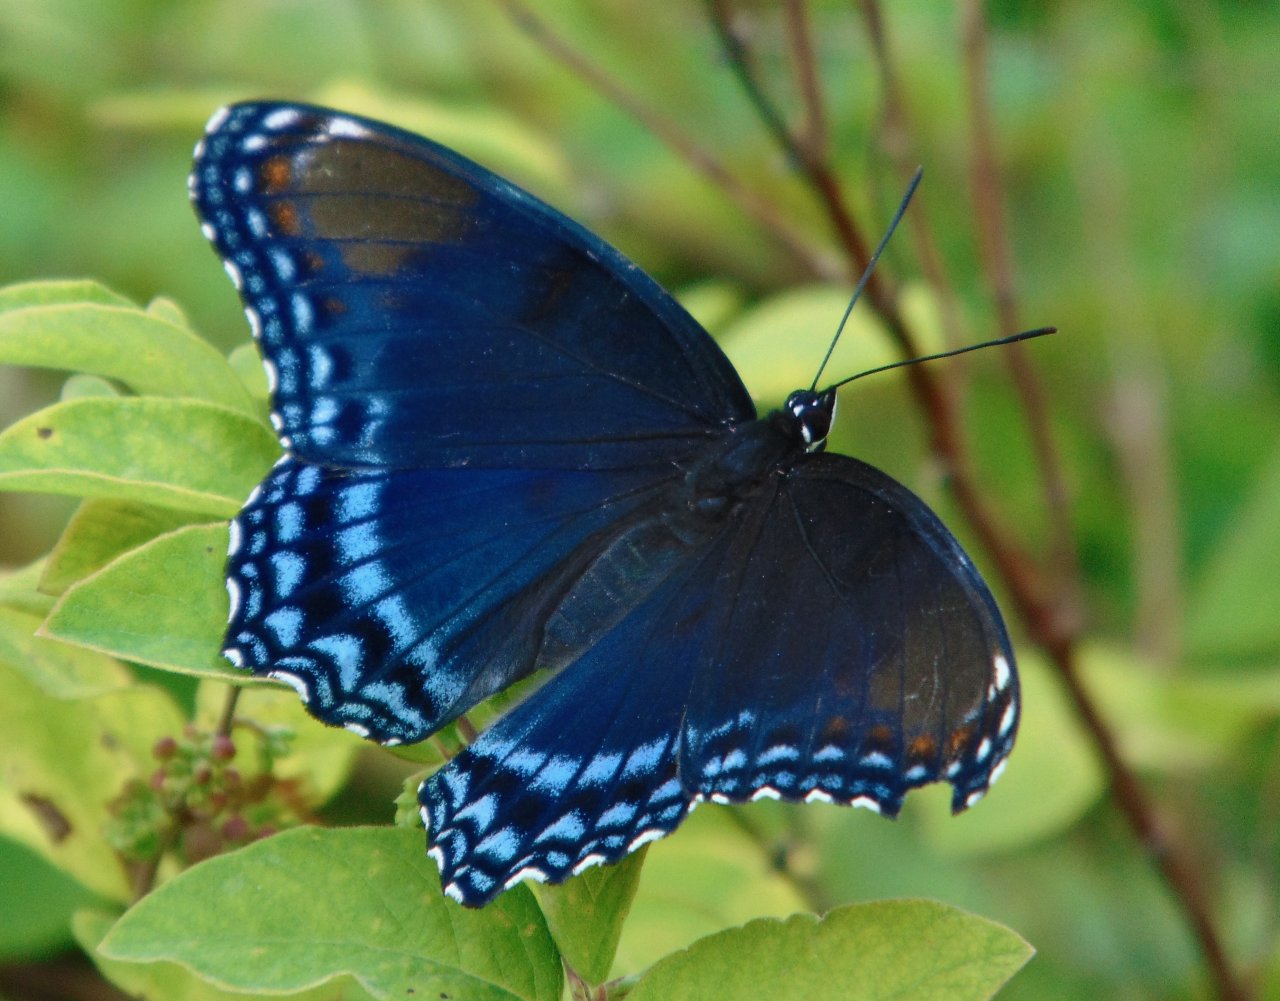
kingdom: Animalia
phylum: Arthropoda
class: Insecta
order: Lepidoptera
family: Nymphalidae
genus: Limenitis
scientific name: Limenitis astyanax
